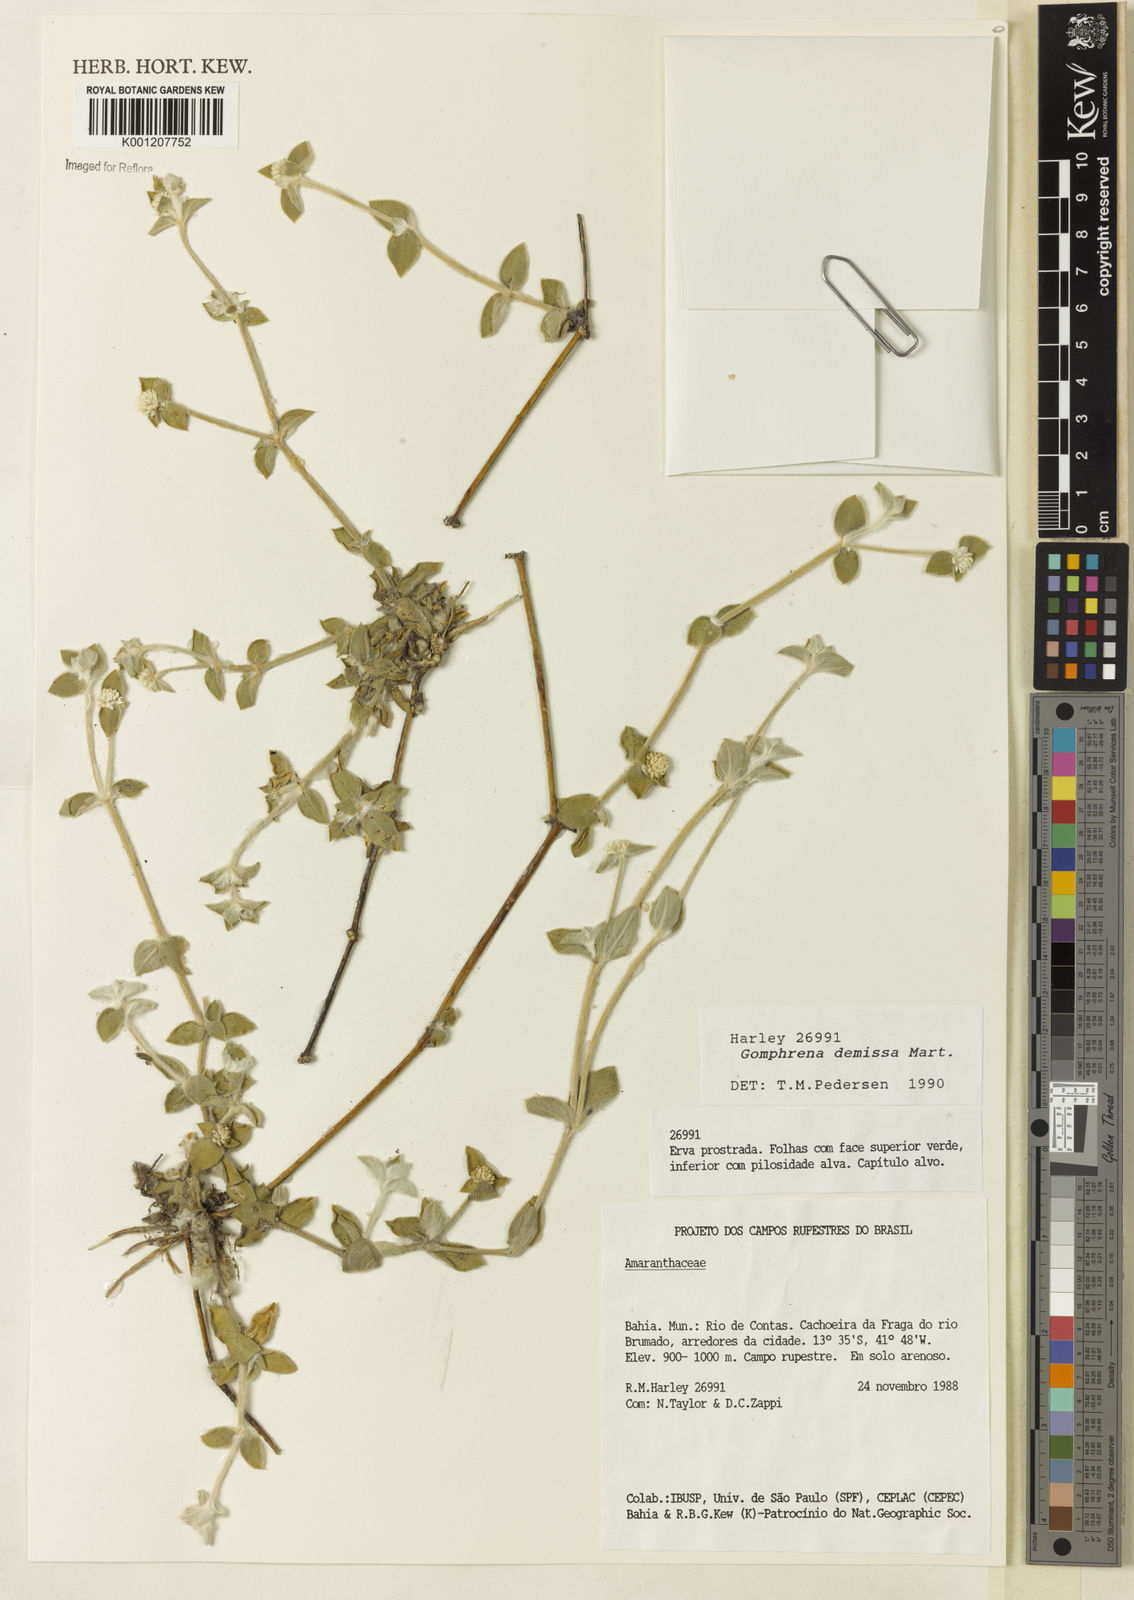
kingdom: Plantae
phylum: Tracheophyta
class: Magnoliopsida
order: Caryophyllales
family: Amaranthaceae
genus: Gomphrena
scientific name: Gomphrena demissa
